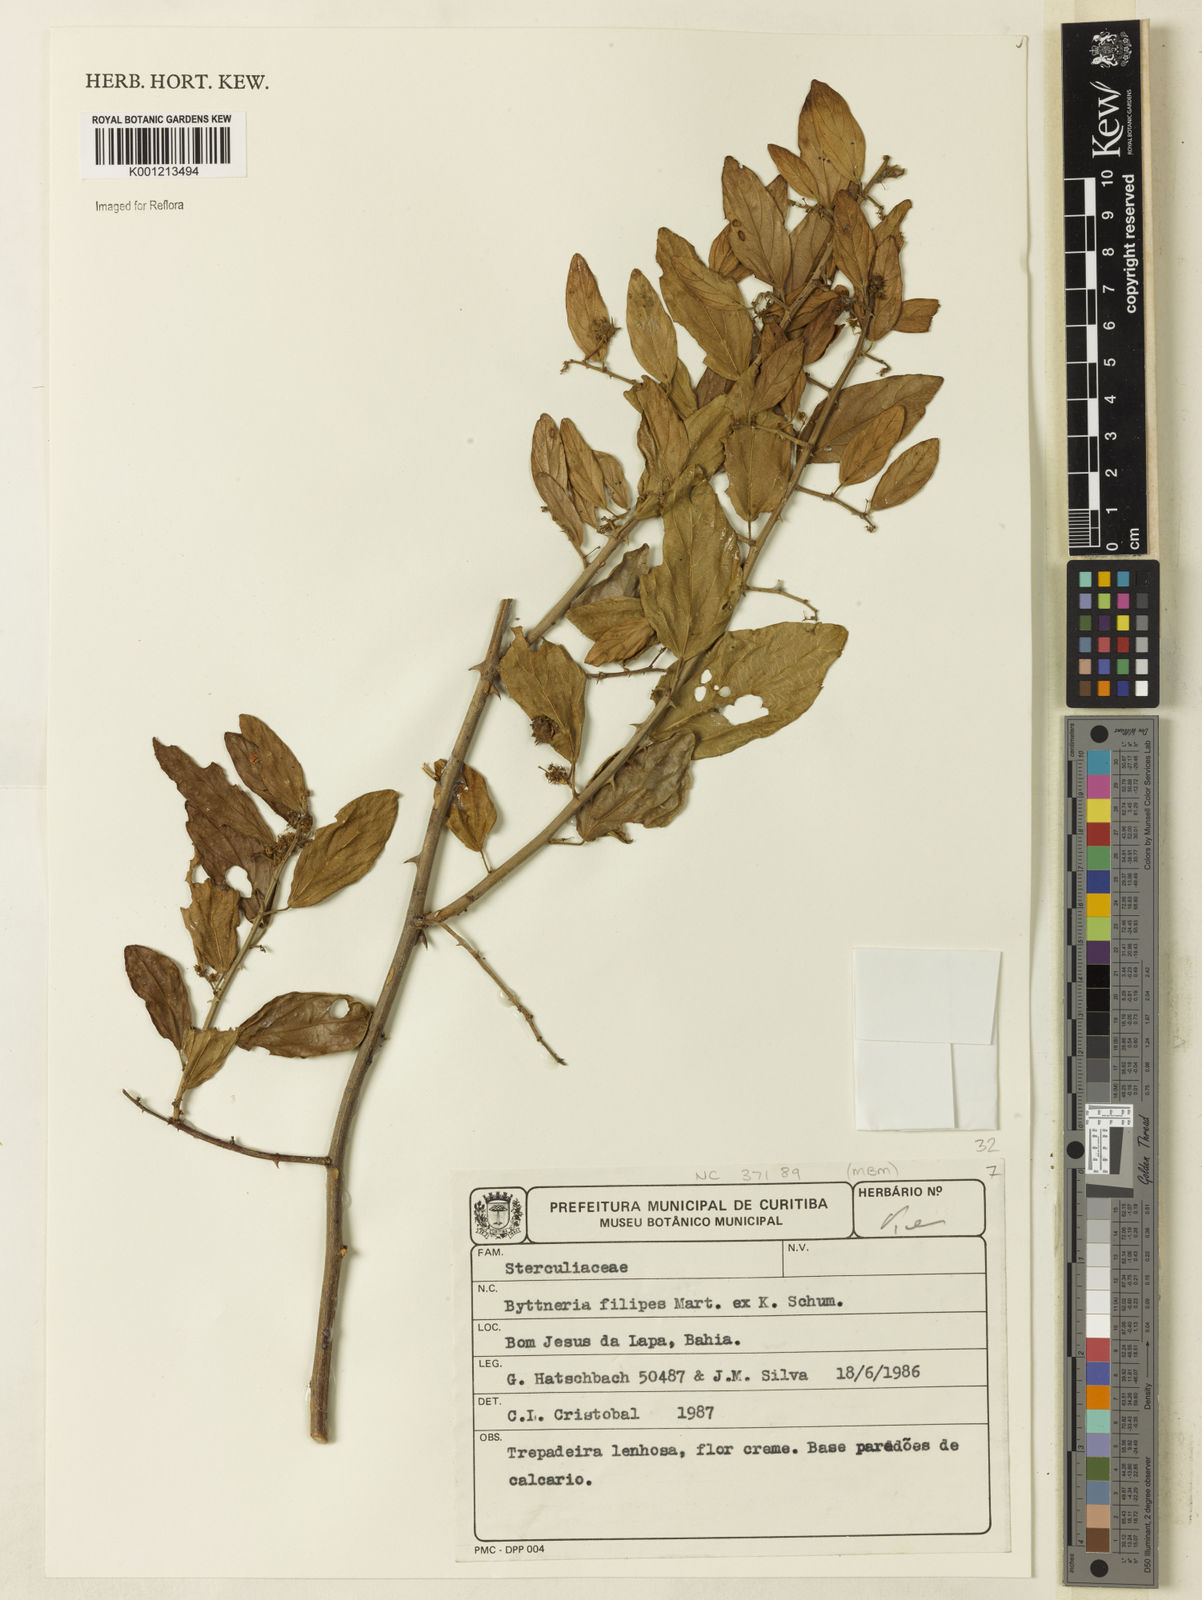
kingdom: Plantae
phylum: Tracheophyta
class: Magnoliopsida
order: Malvales
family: Malvaceae
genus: Byttneria
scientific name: Byttneria filipes
